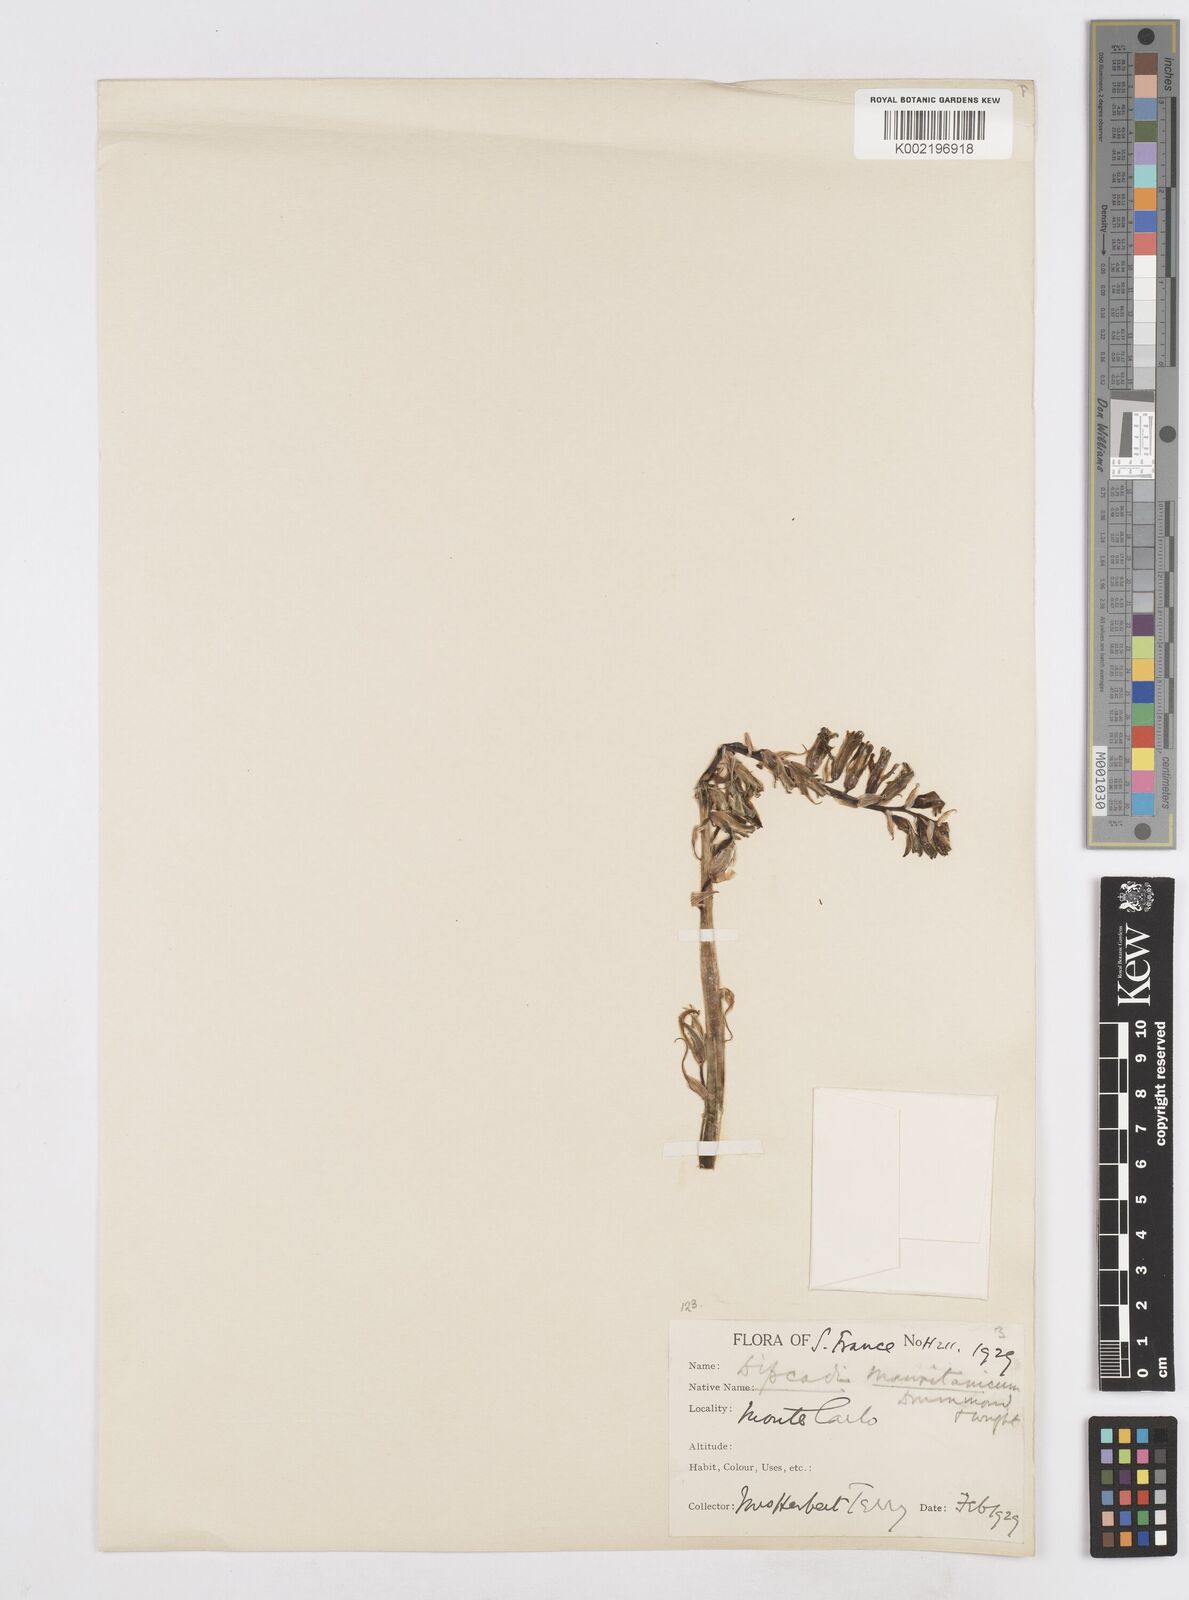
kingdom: Plantae
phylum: Tracheophyta
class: Liliopsida
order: Asparagales
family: Asparagaceae
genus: Dipcadi
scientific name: Dipcadi serotinum
